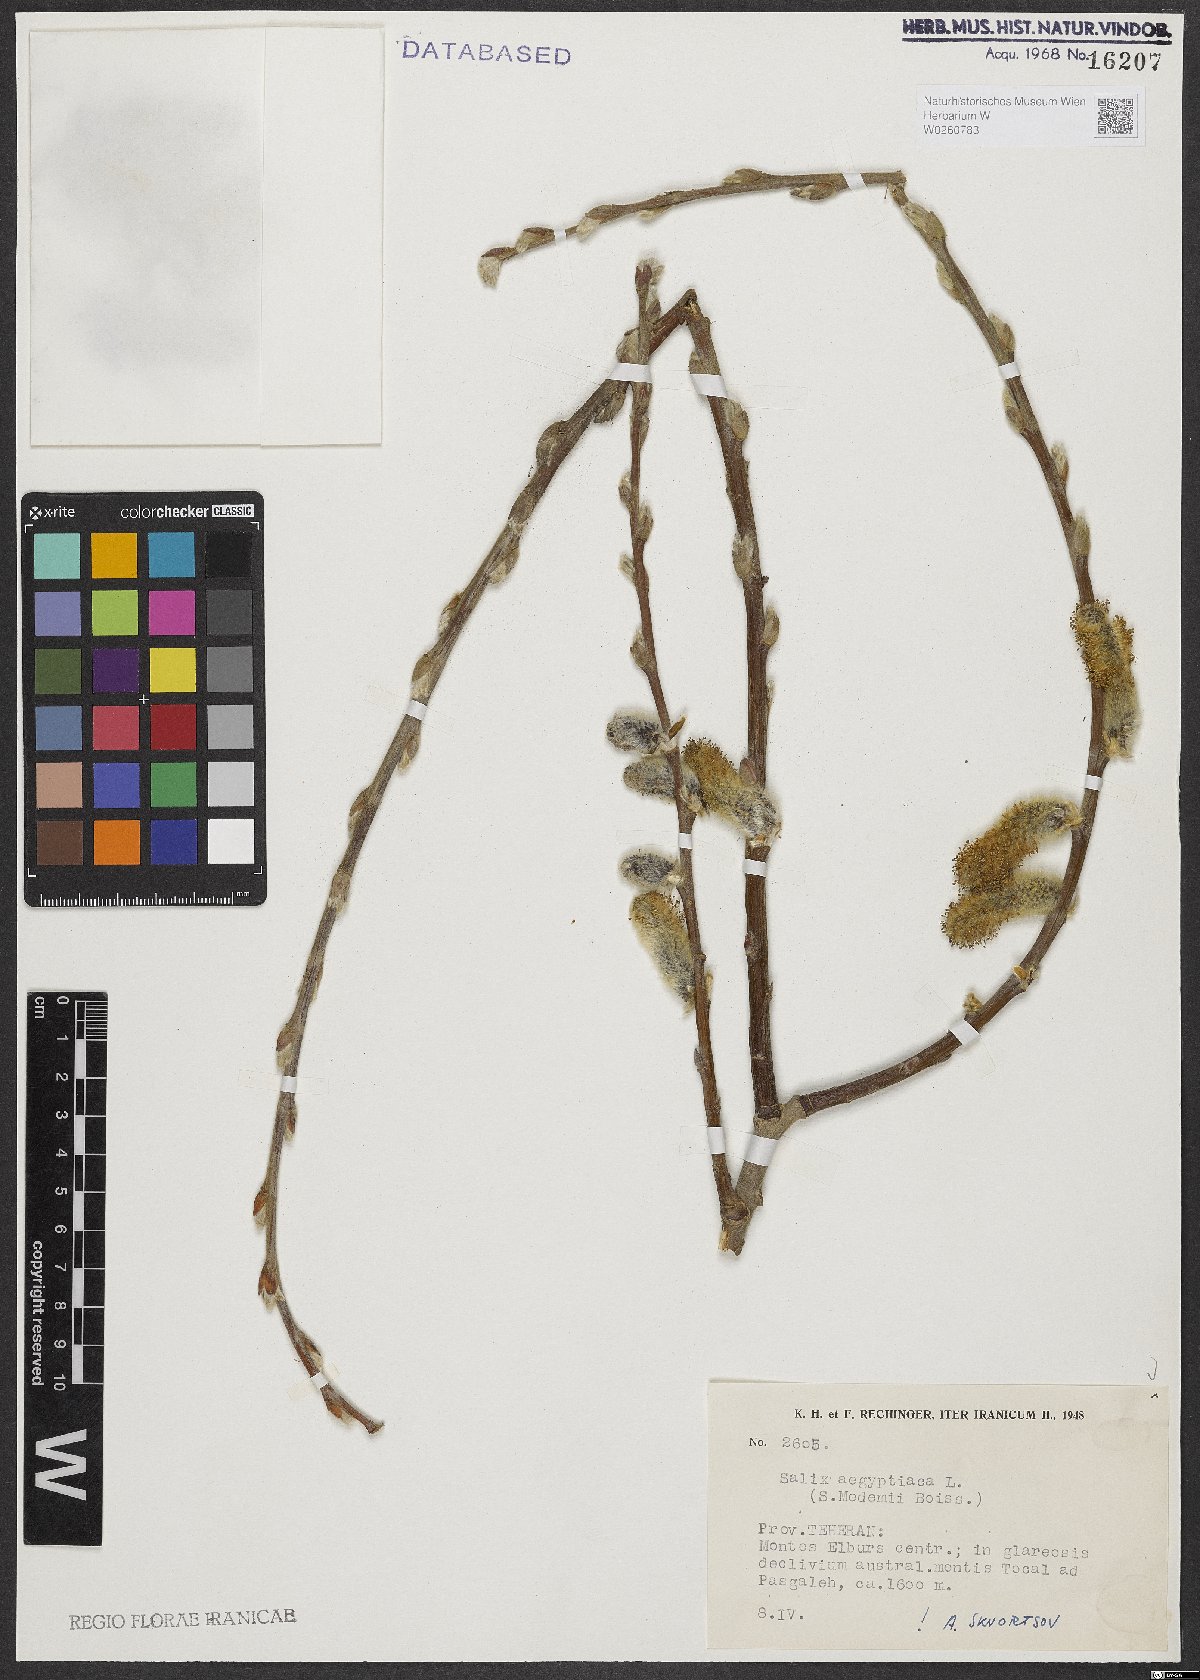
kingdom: Plantae
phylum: Tracheophyta
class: Magnoliopsida
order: Malpighiales
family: Salicaceae
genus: Salix
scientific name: Salix aegyptiaca
